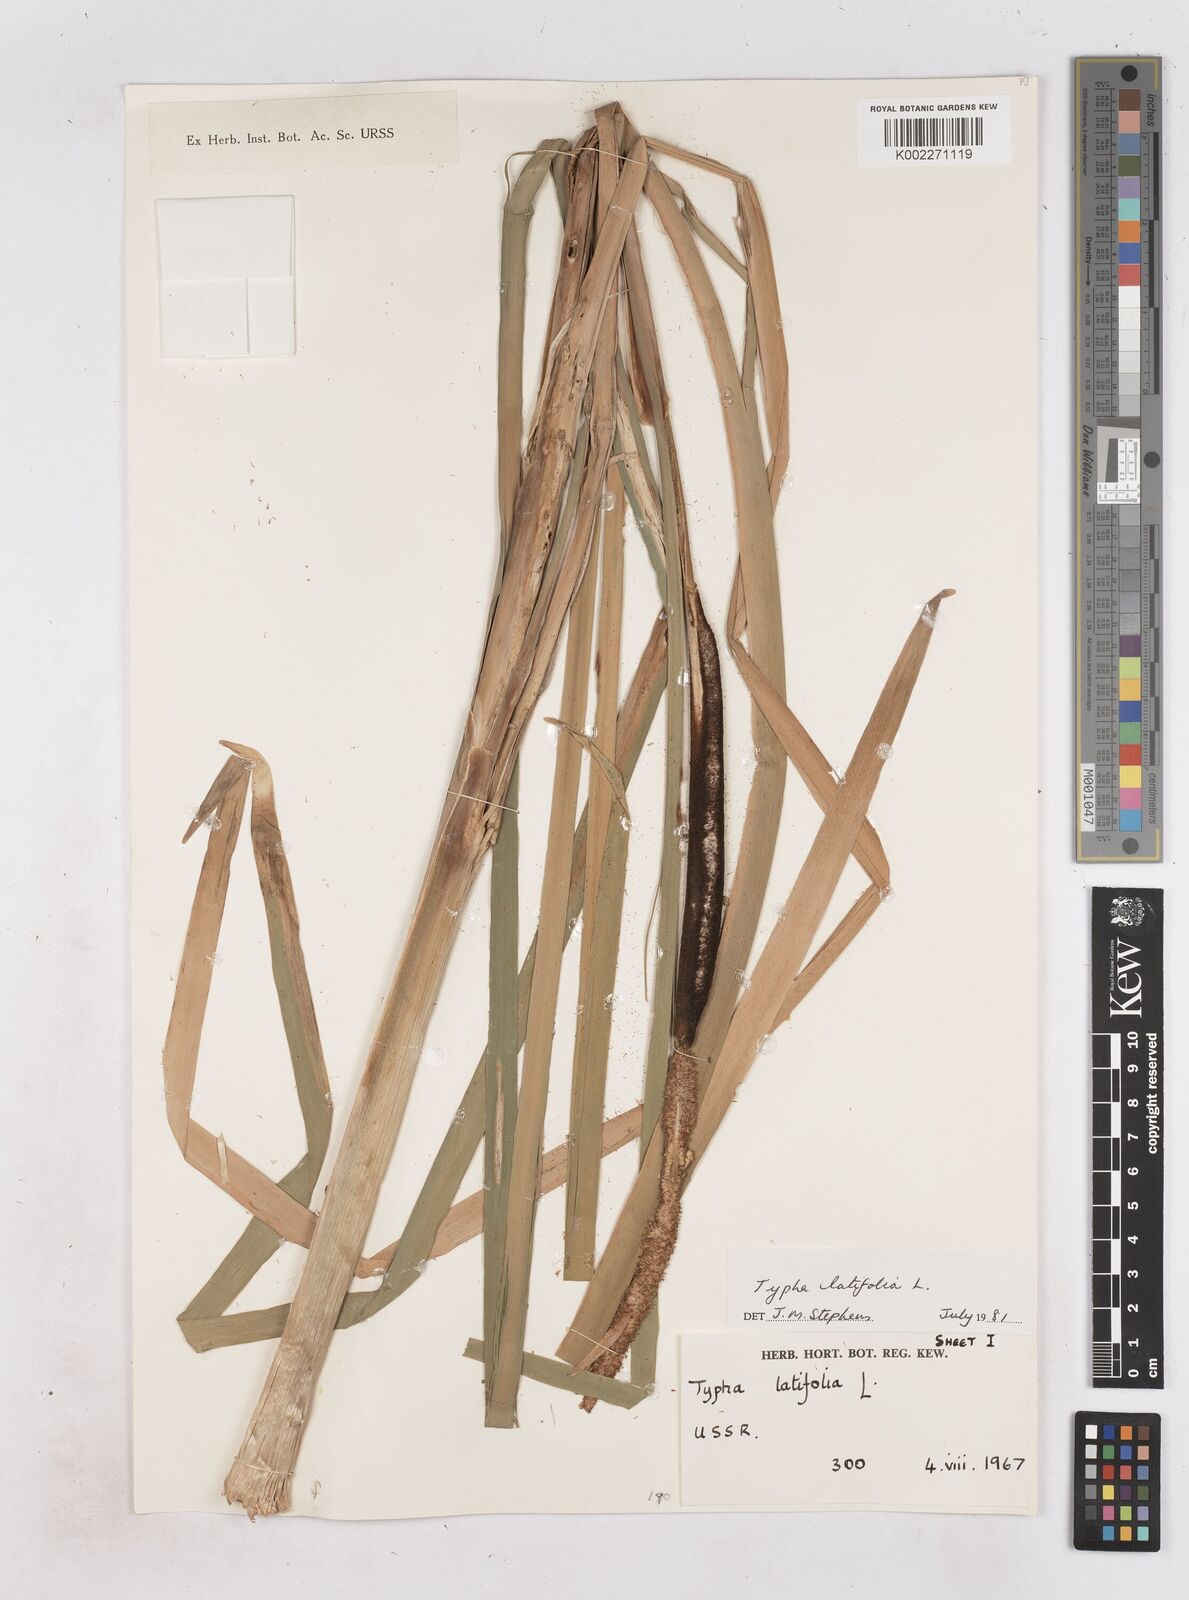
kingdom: Plantae
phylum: Tracheophyta
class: Liliopsida
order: Poales
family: Typhaceae
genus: Typha
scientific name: Typha latifolia
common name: Broadleaf cattail
